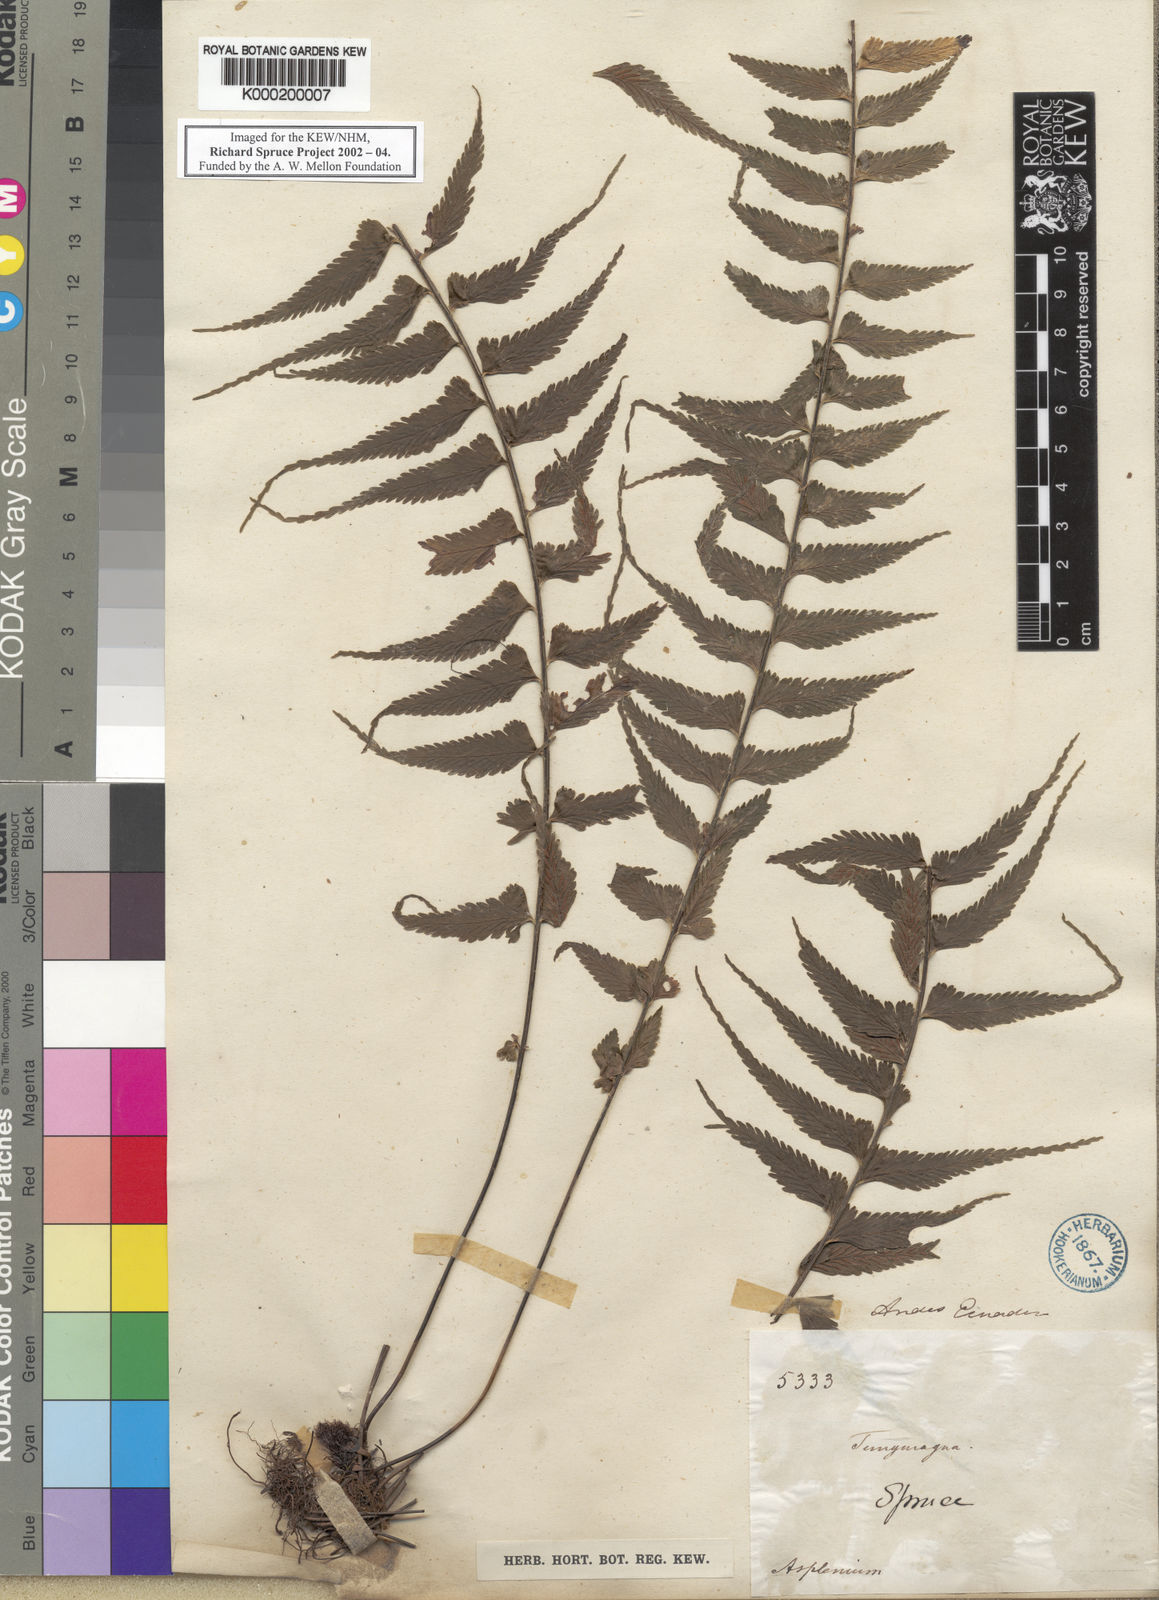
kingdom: Plantae
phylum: Tracheophyta
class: Polypodiopsida
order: Polypodiales
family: Aspleniaceae
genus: Asplenium
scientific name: Asplenium harpeodes
